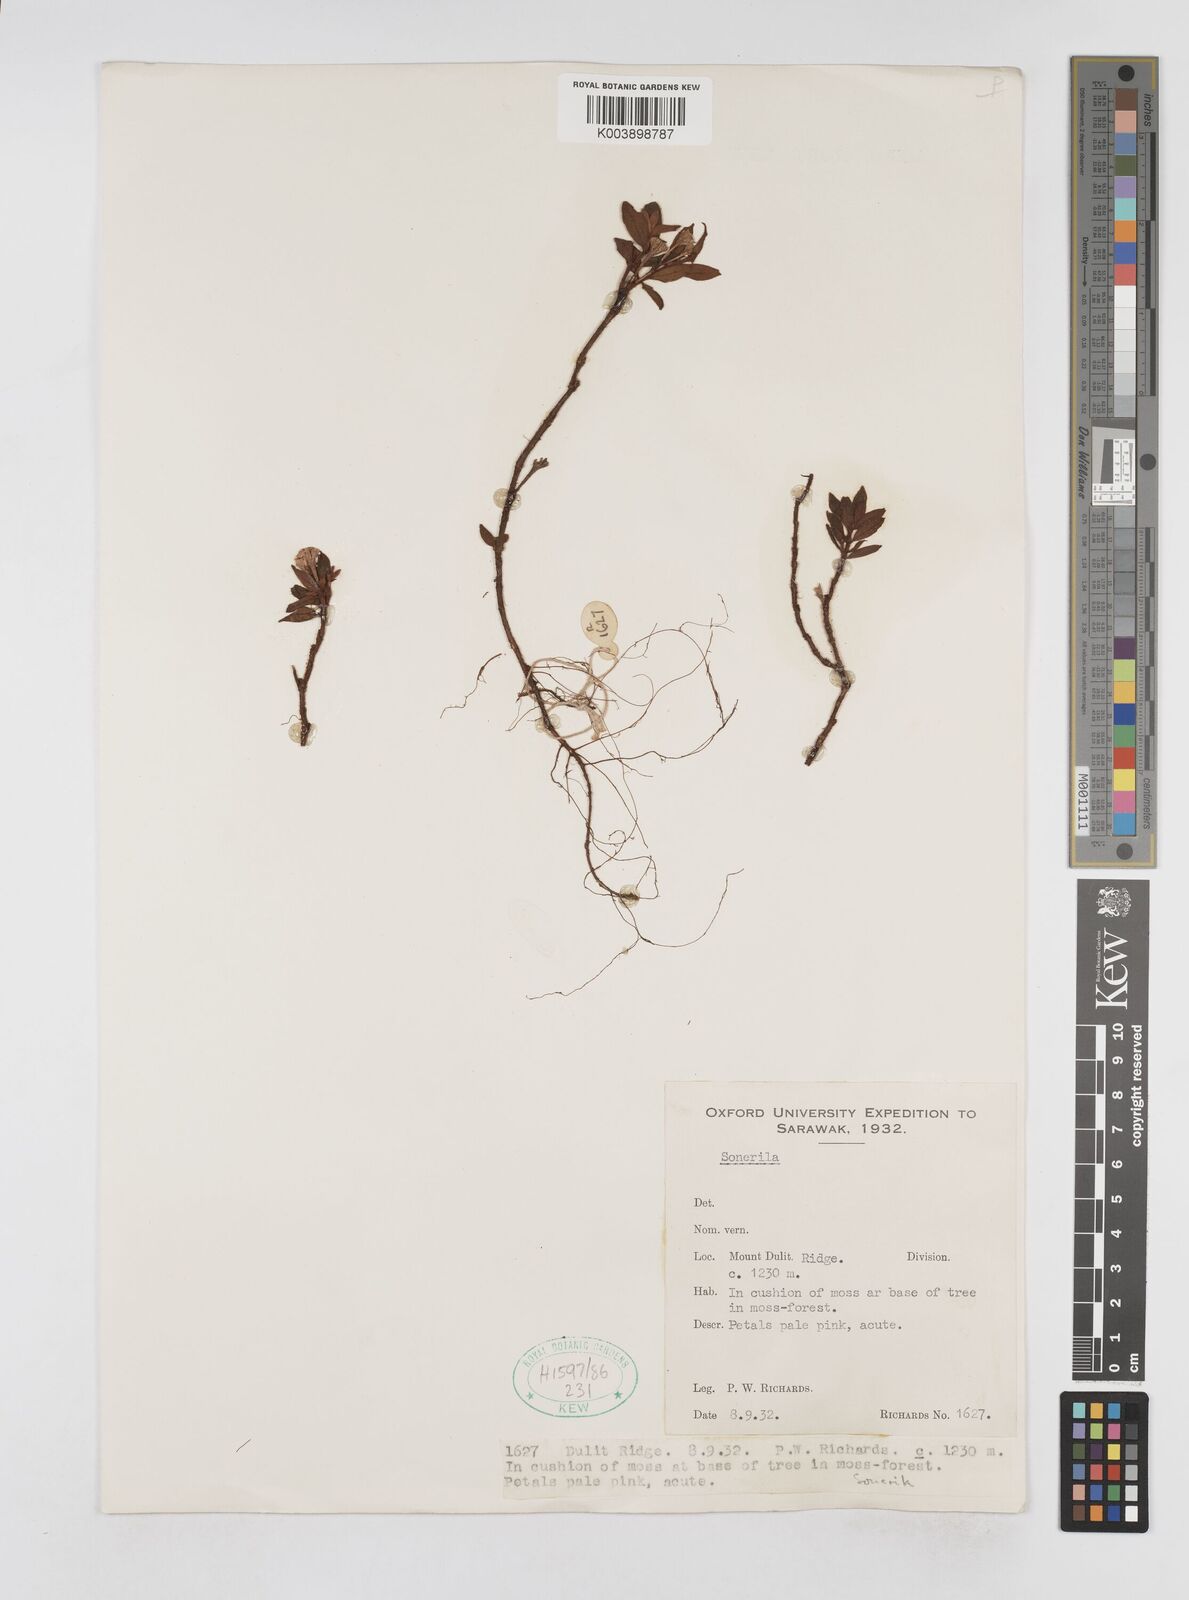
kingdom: Plantae
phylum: Tracheophyta
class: Magnoliopsida
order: Myrtales
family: Melastomataceae
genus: Sonerila
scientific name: Sonerila
